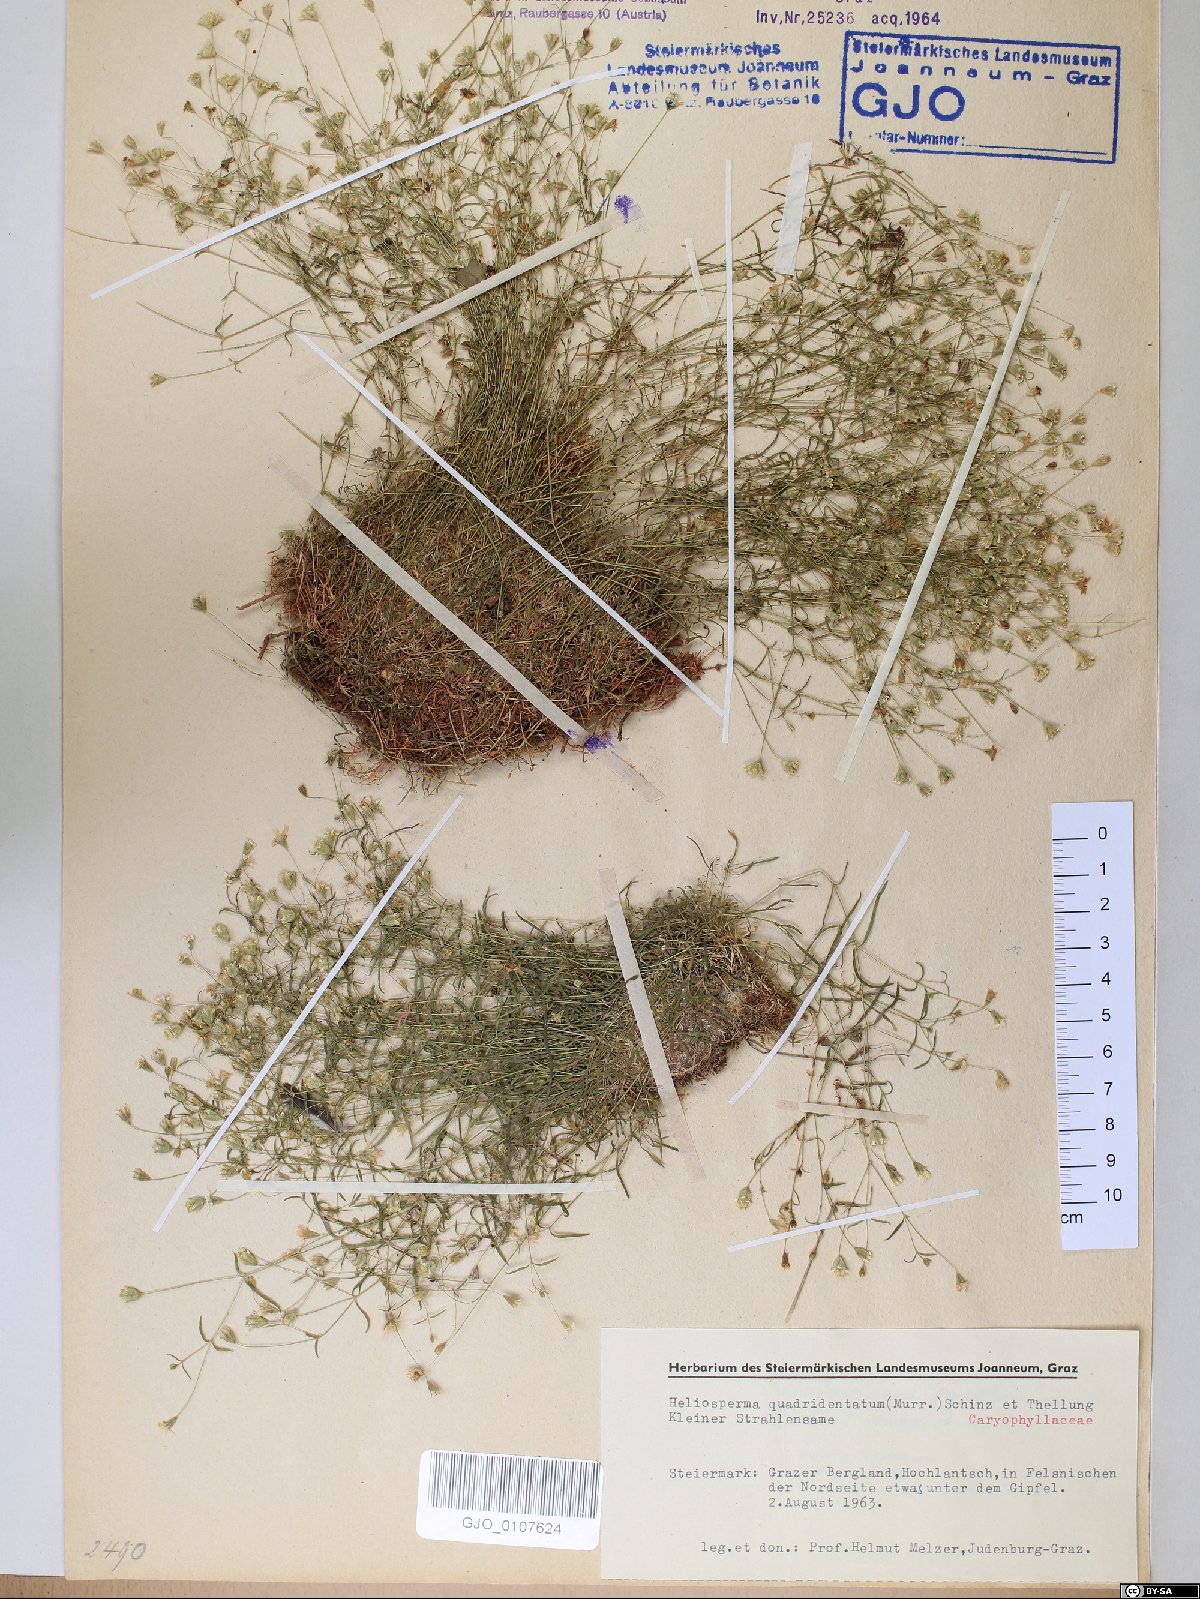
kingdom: Plantae
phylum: Tracheophyta
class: Magnoliopsida
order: Caryophyllales
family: Caryophyllaceae
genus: Heliosperma
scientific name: Heliosperma alpestre
